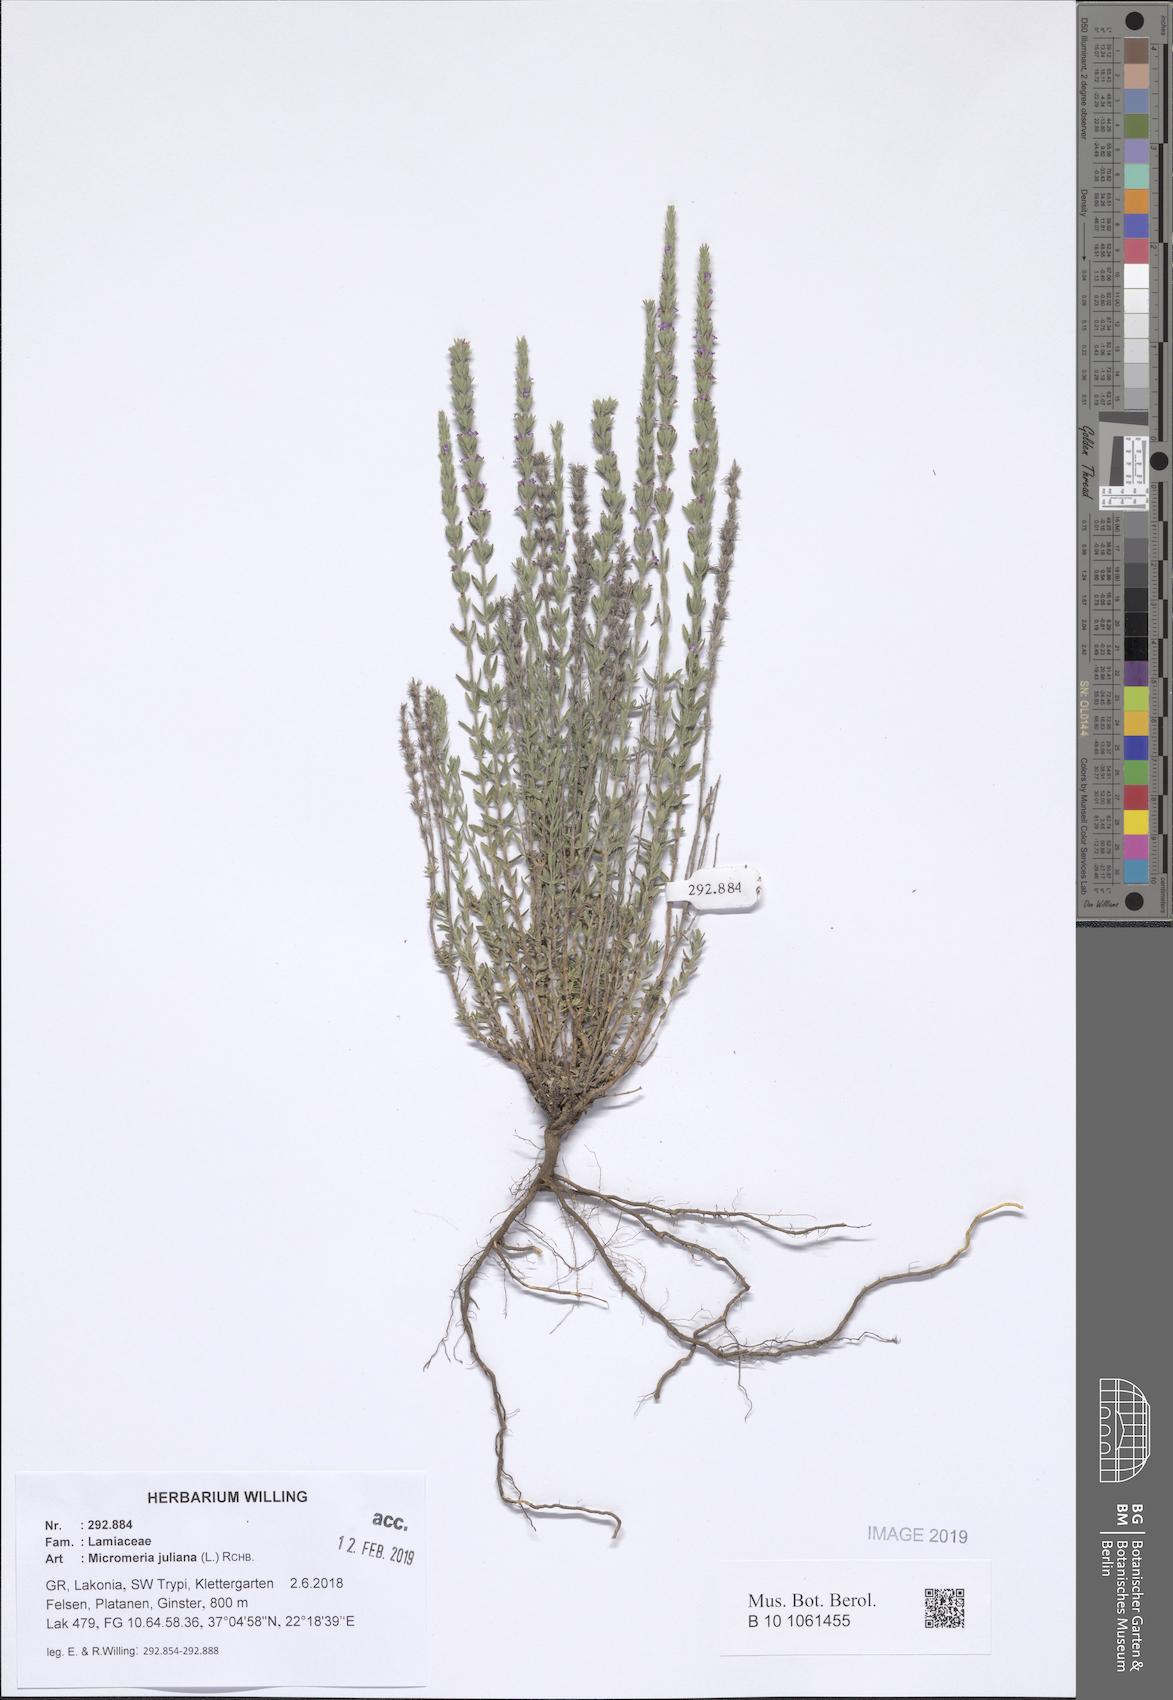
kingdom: Plantae
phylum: Tracheophyta
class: Magnoliopsida
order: Lamiales
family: Lamiaceae
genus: Micromeria
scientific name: Micromeria juliana
